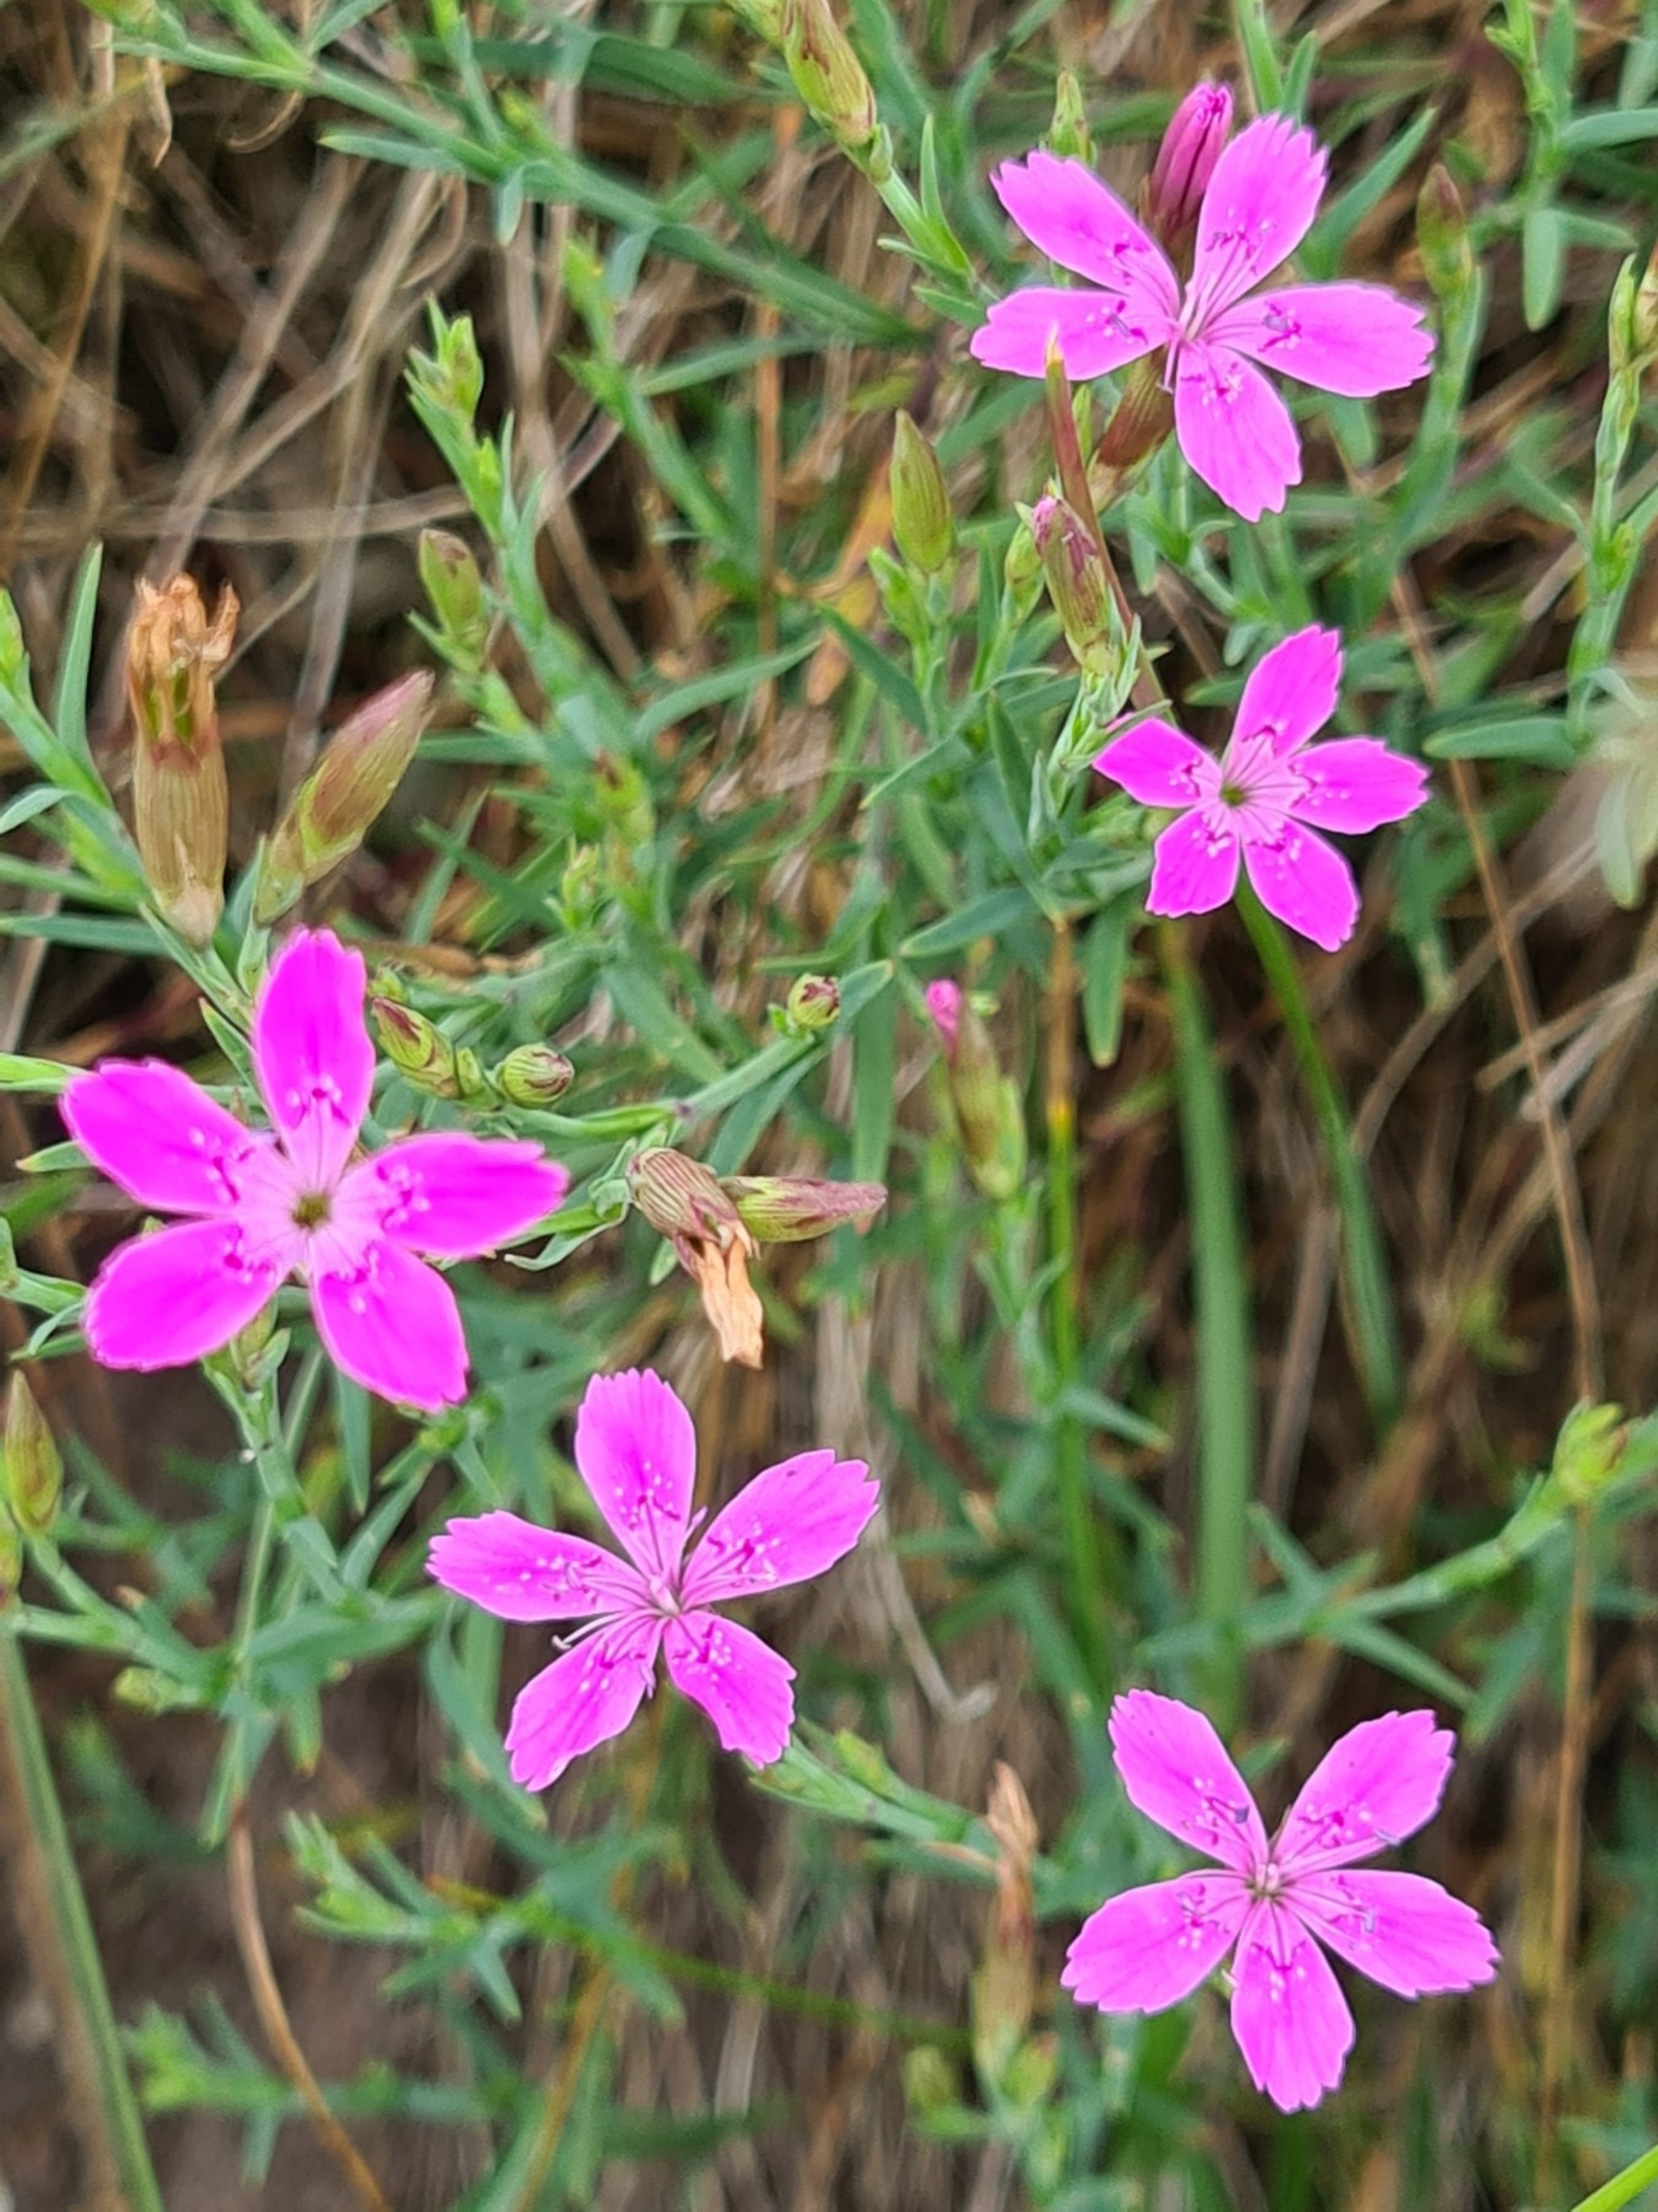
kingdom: Plantae
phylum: Tracheophyta
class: Magnoliopsida
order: Caryophyllales
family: Caryophyllaceae
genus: Dianthus
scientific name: Dianthus deltoides
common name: Bakke-nellike
